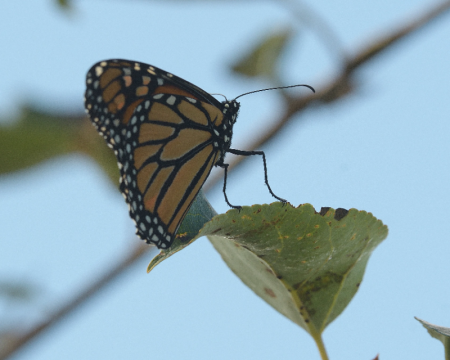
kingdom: Animalia
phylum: Arthropoda
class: Insecta
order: Lepidoptera
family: Nymphalidae
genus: Danaus
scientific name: Danaus plexippus
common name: Monarch
